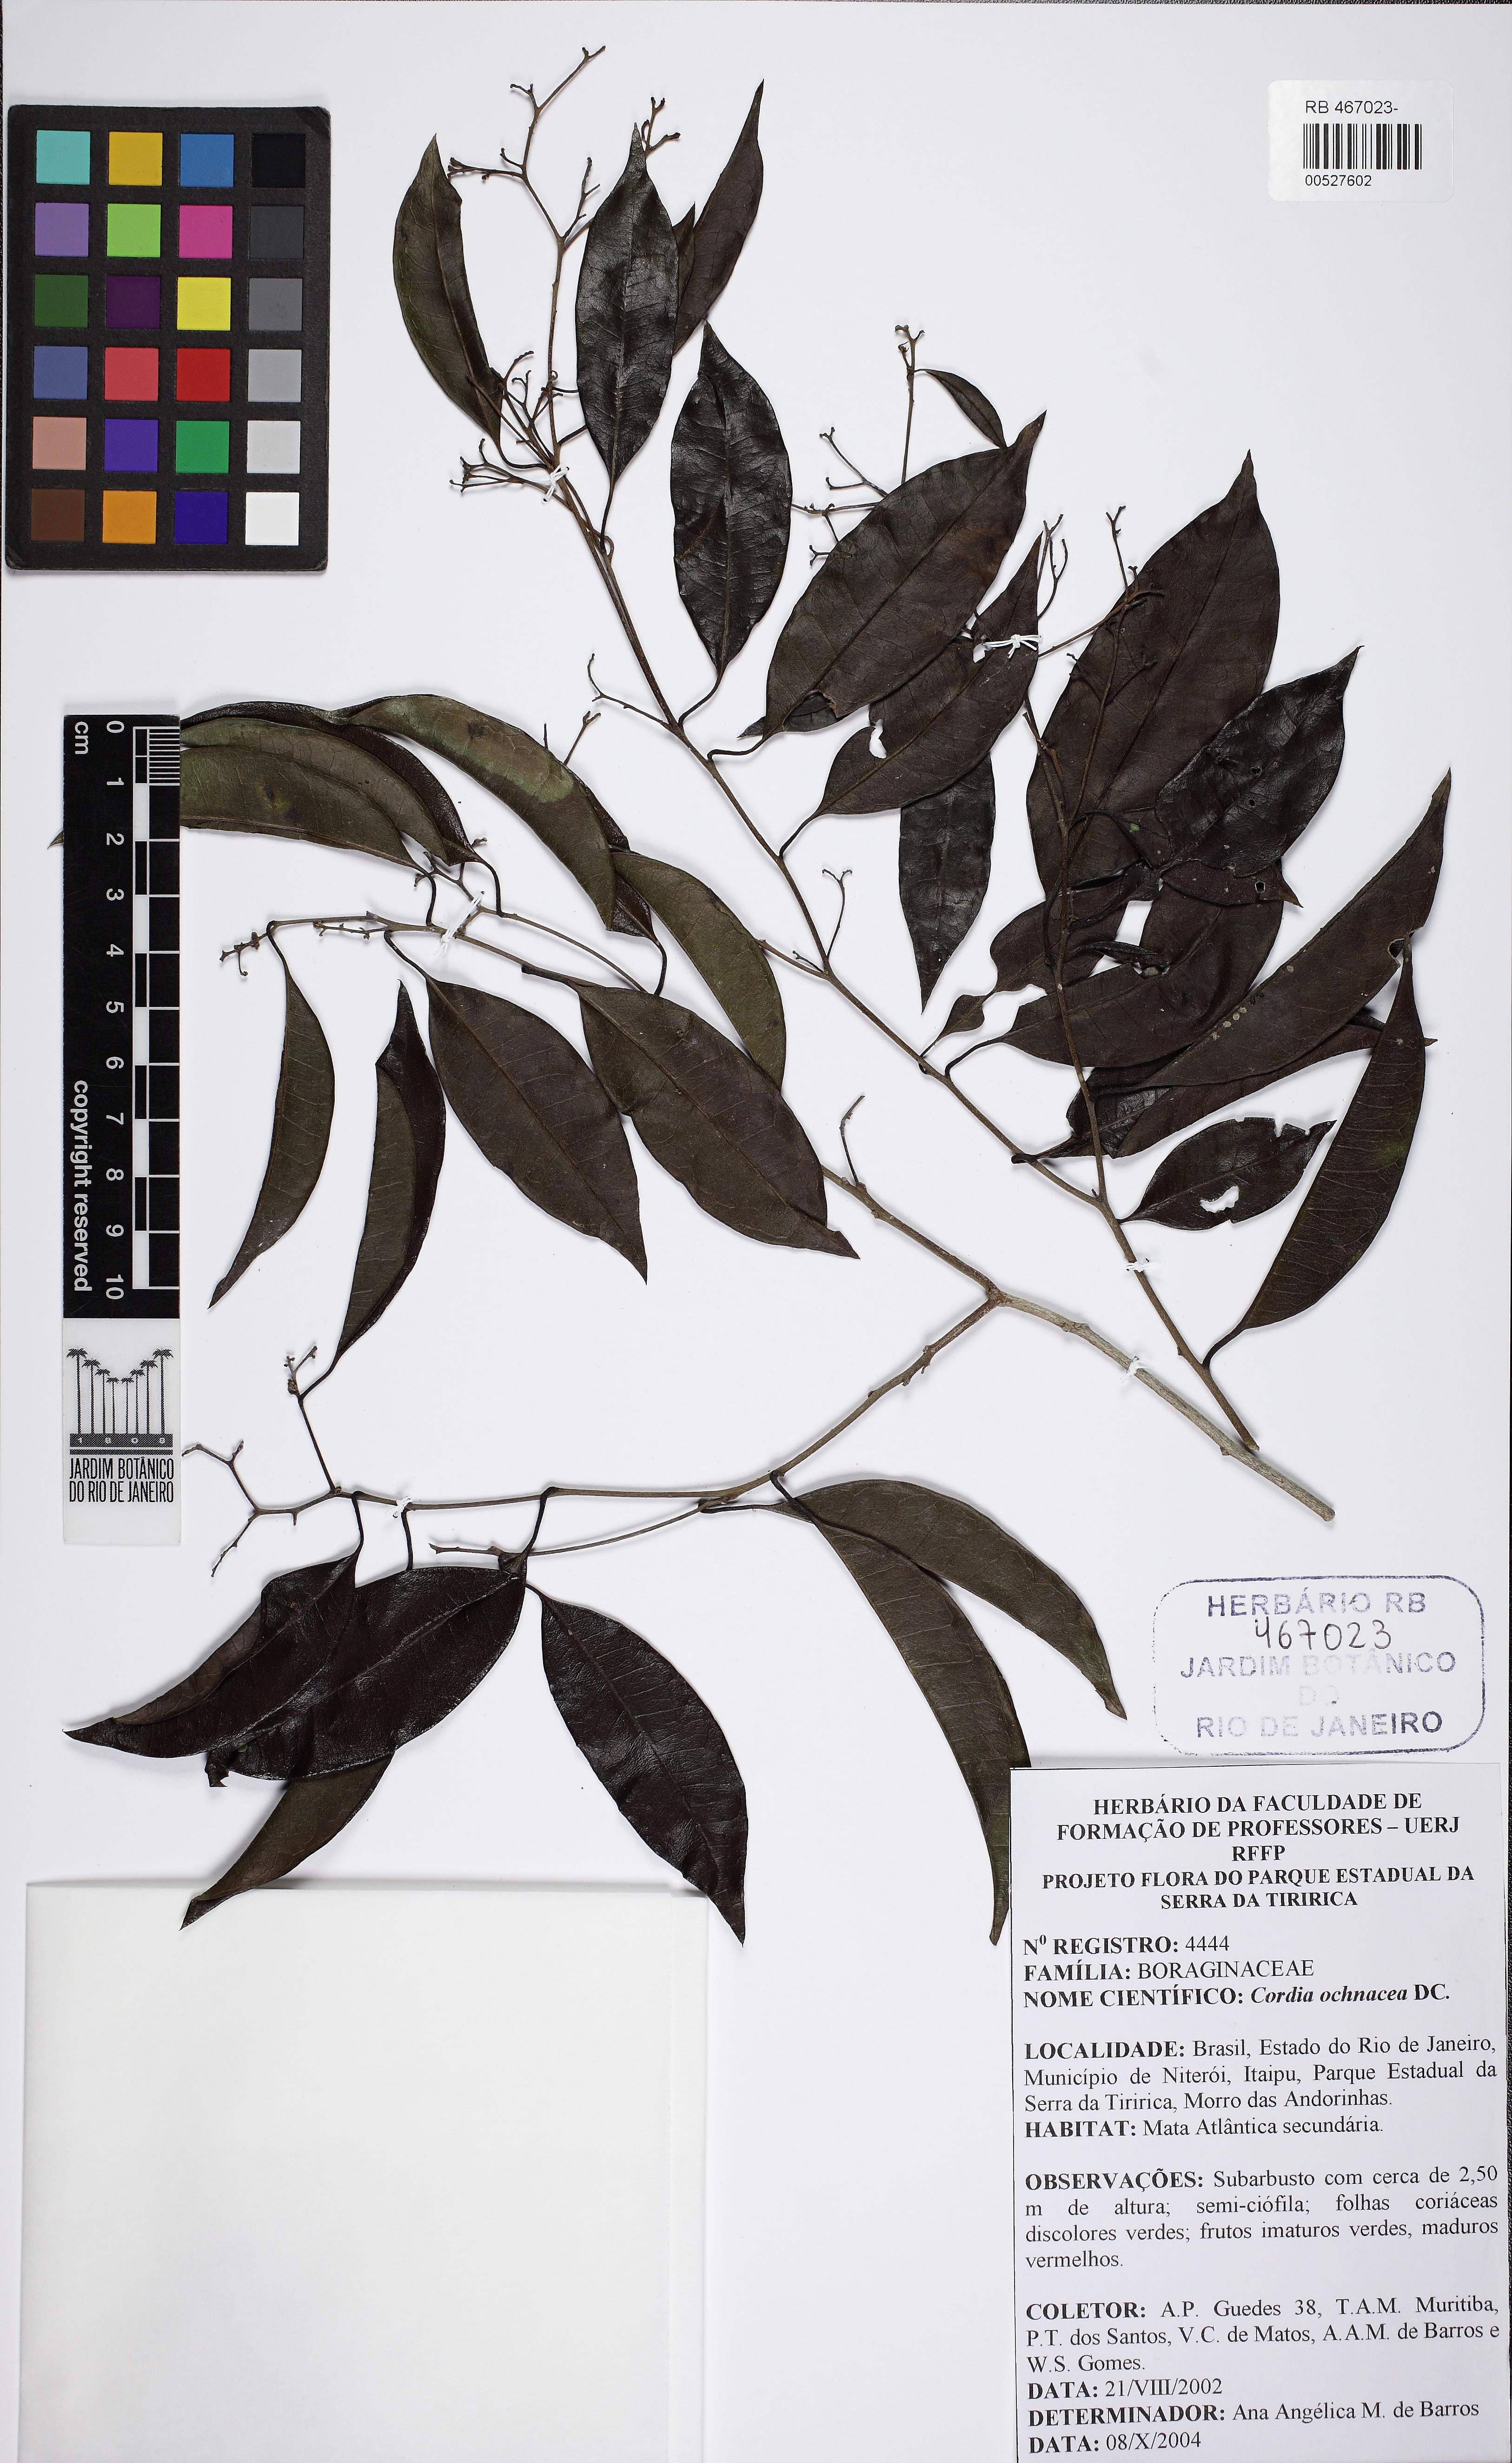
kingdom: Plantae
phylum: Tracheophyta
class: Magnoliopsida
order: Boraginales
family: Cordiaceae
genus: Cordia
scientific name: Cordia ochnacea
